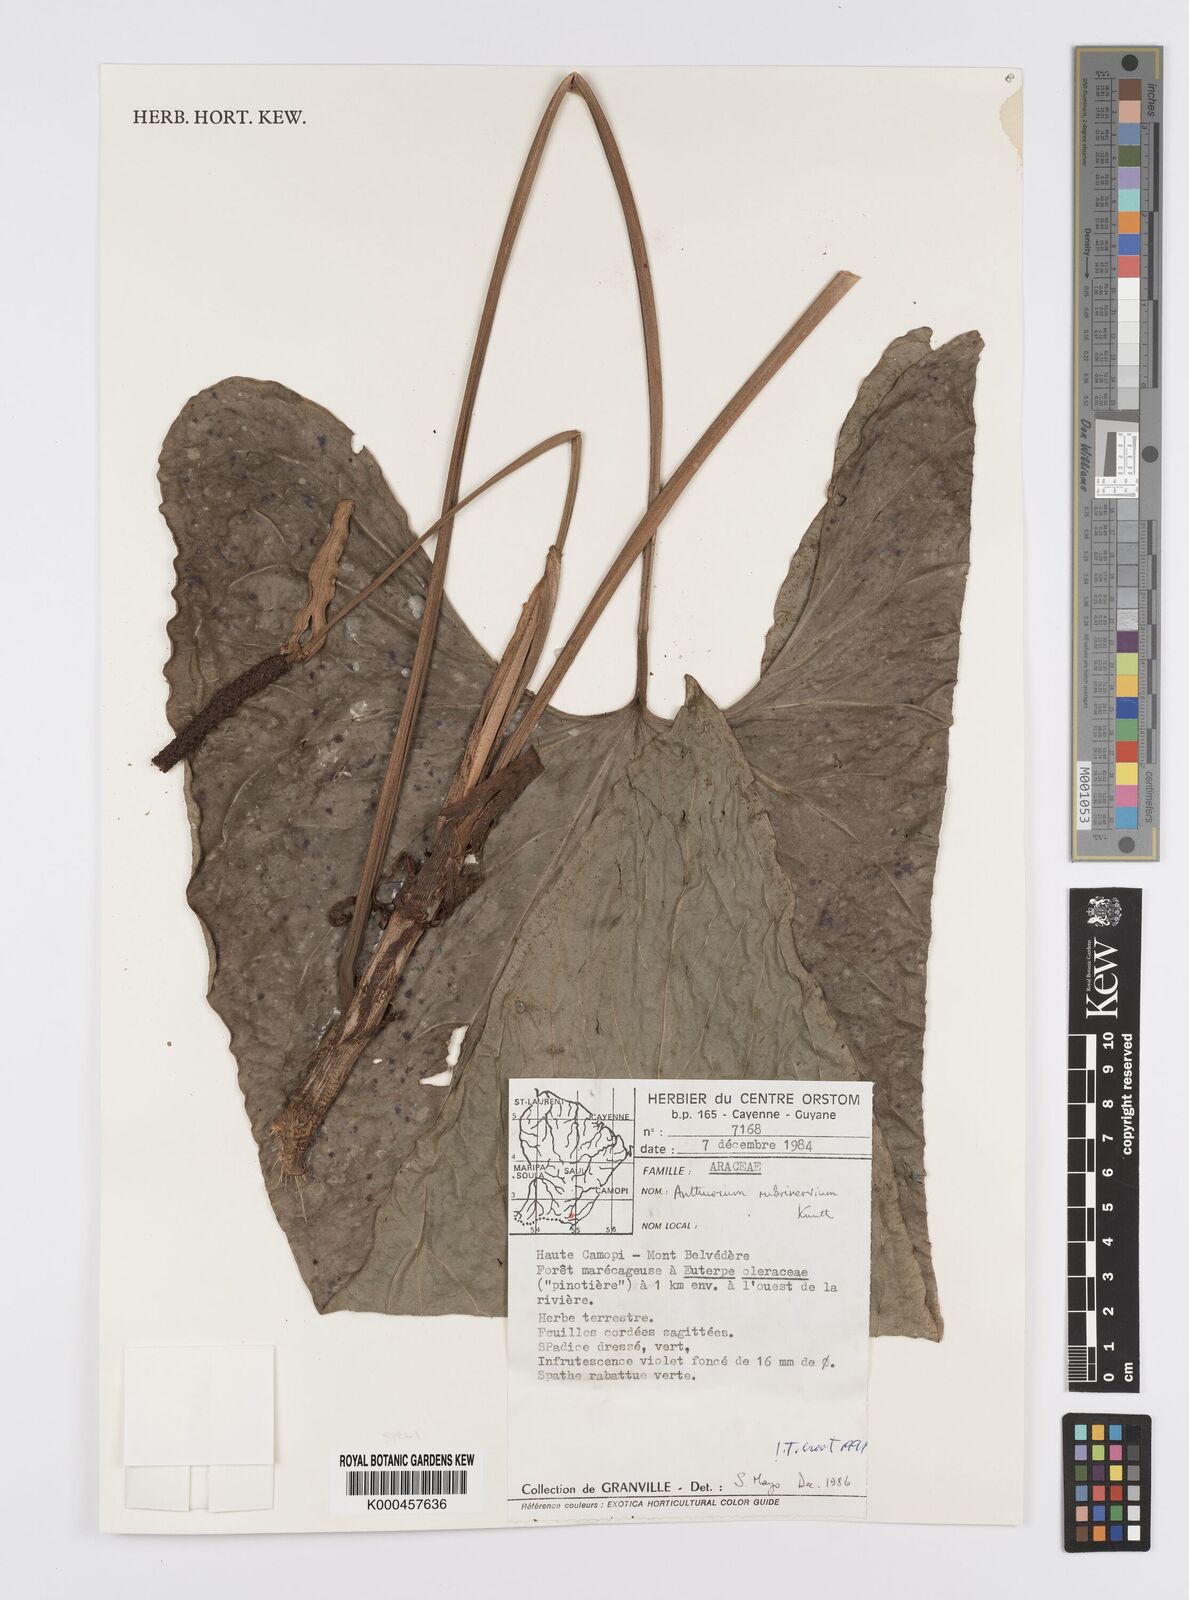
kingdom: Plantae
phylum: Tracheophyta
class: Liliopsida
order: Alismatales
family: Araceae
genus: Anthurium
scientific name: Anthurium sagittatum
